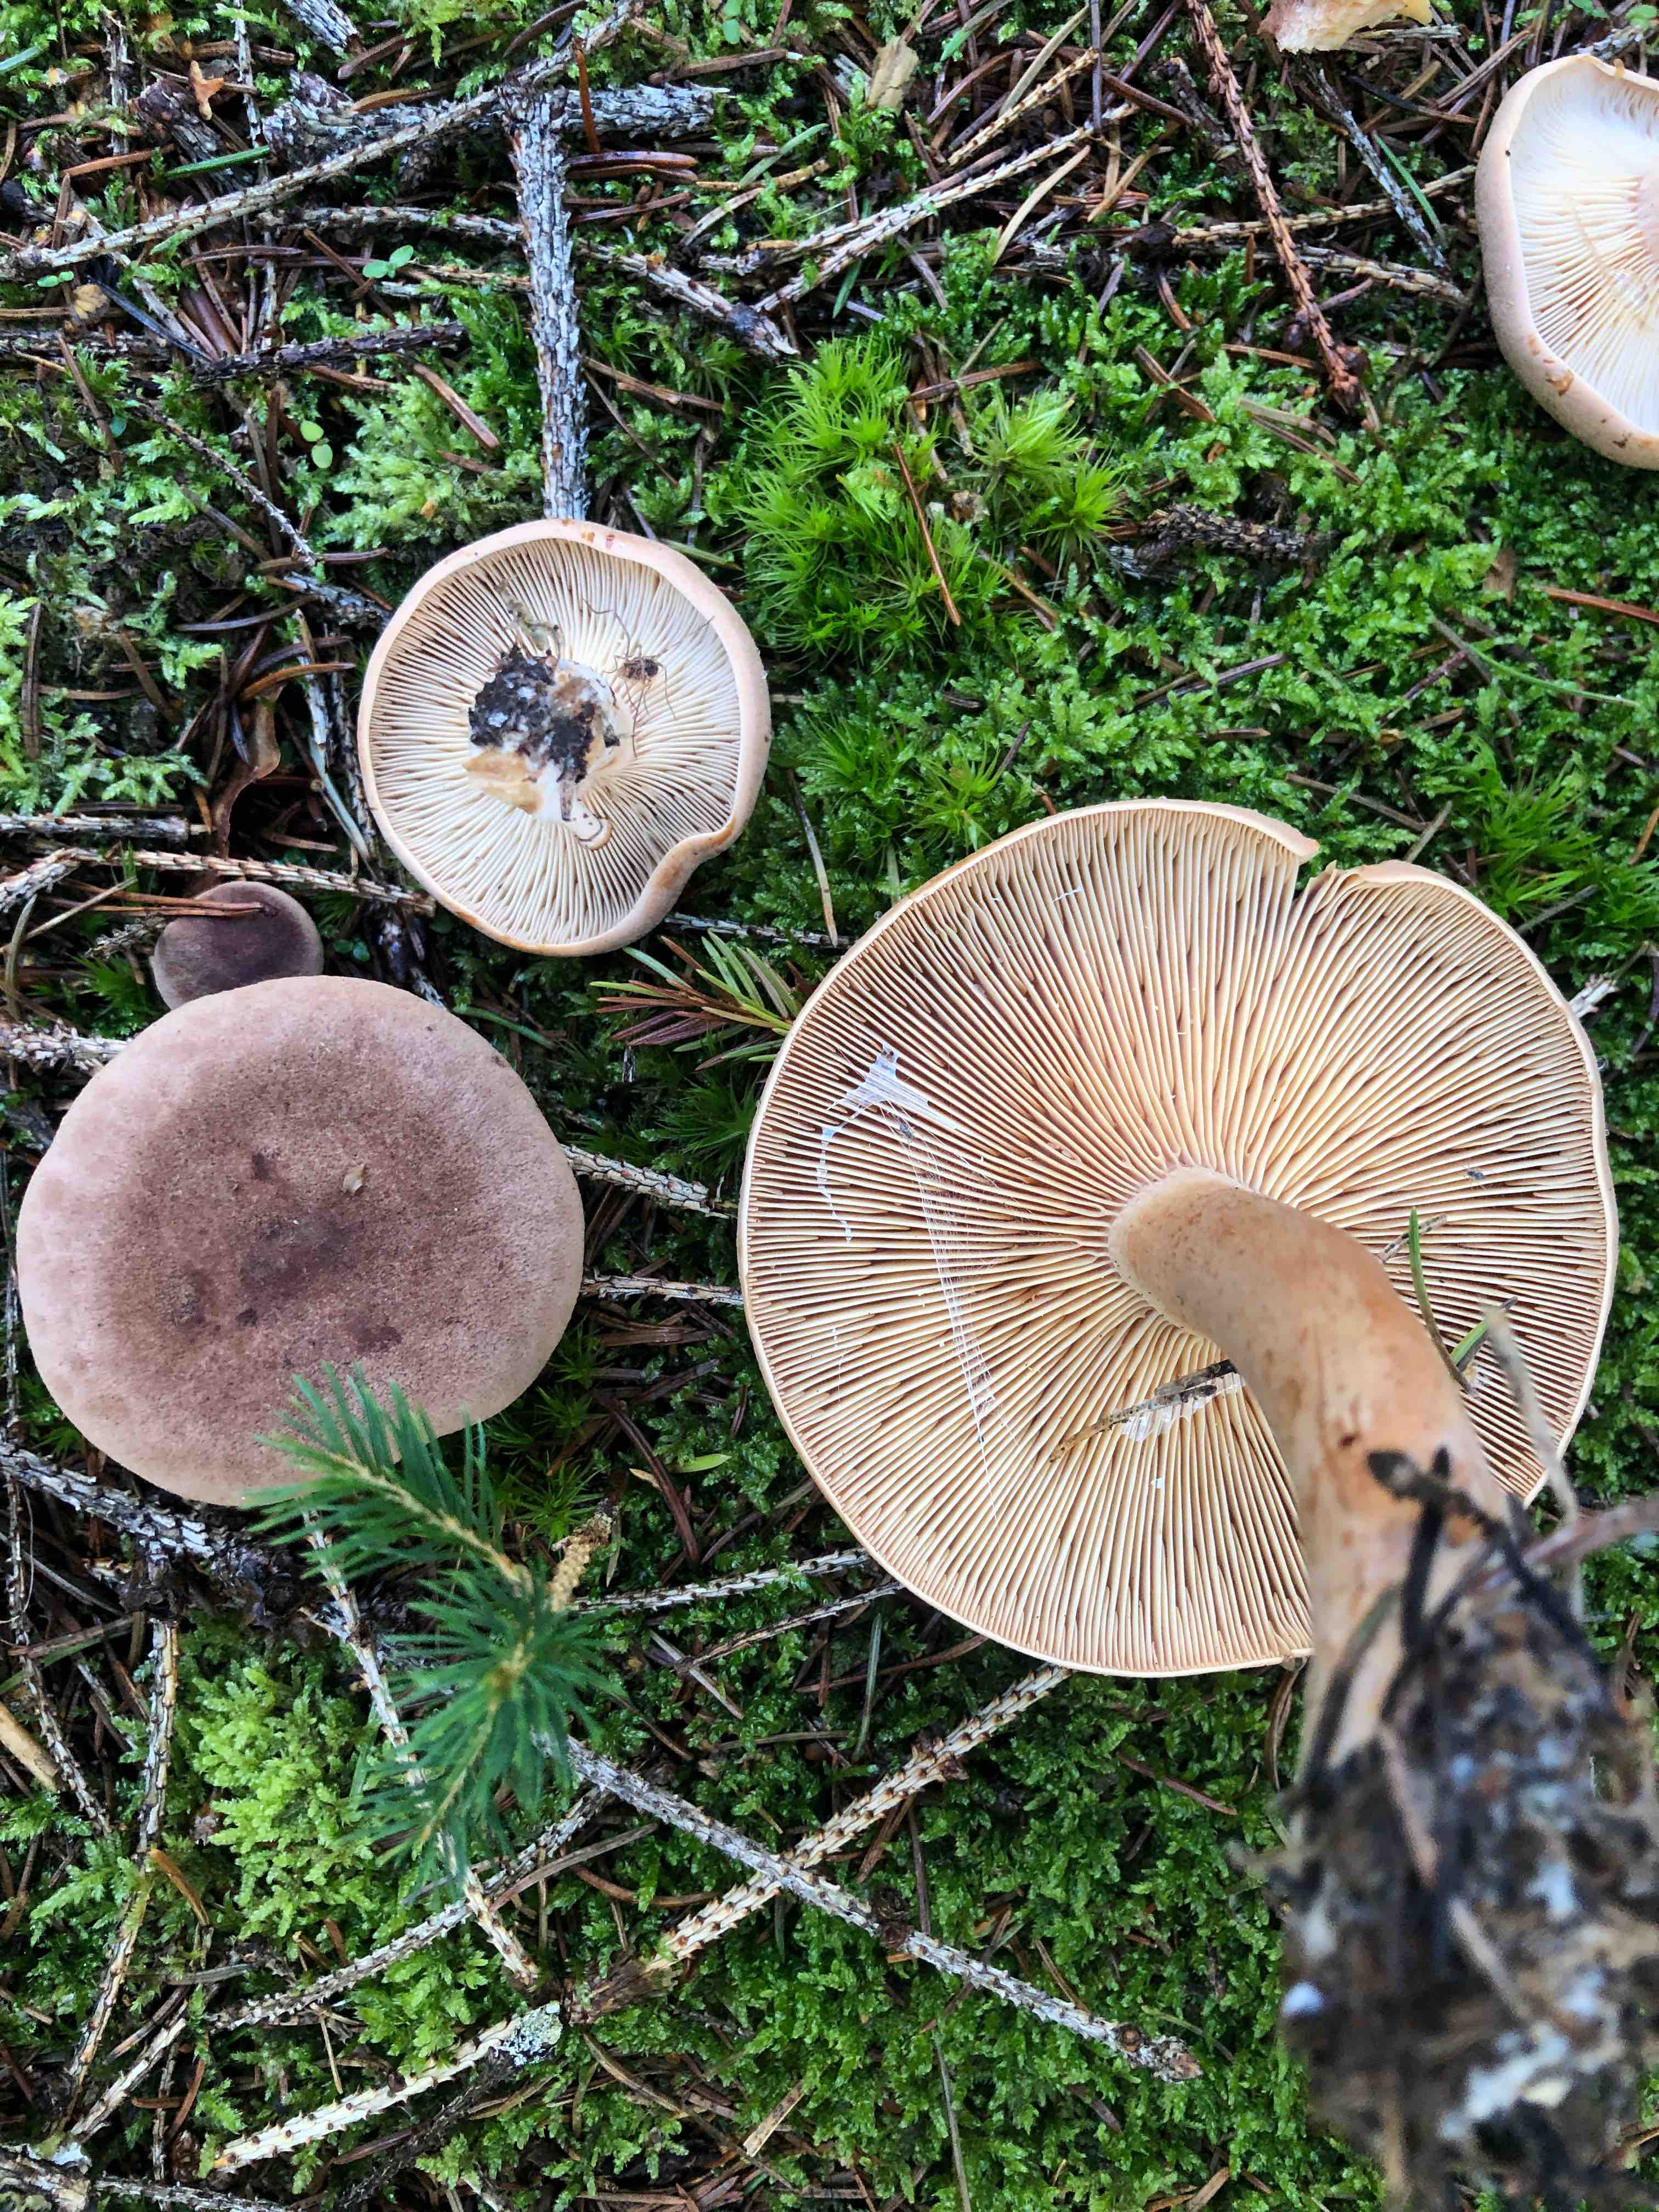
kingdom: Fungi
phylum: Basidiomycota
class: Agaricomycetes
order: Russulales
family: Russulaceae
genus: Lactarius
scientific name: Lactarius helvus
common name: mose-mælkehat
